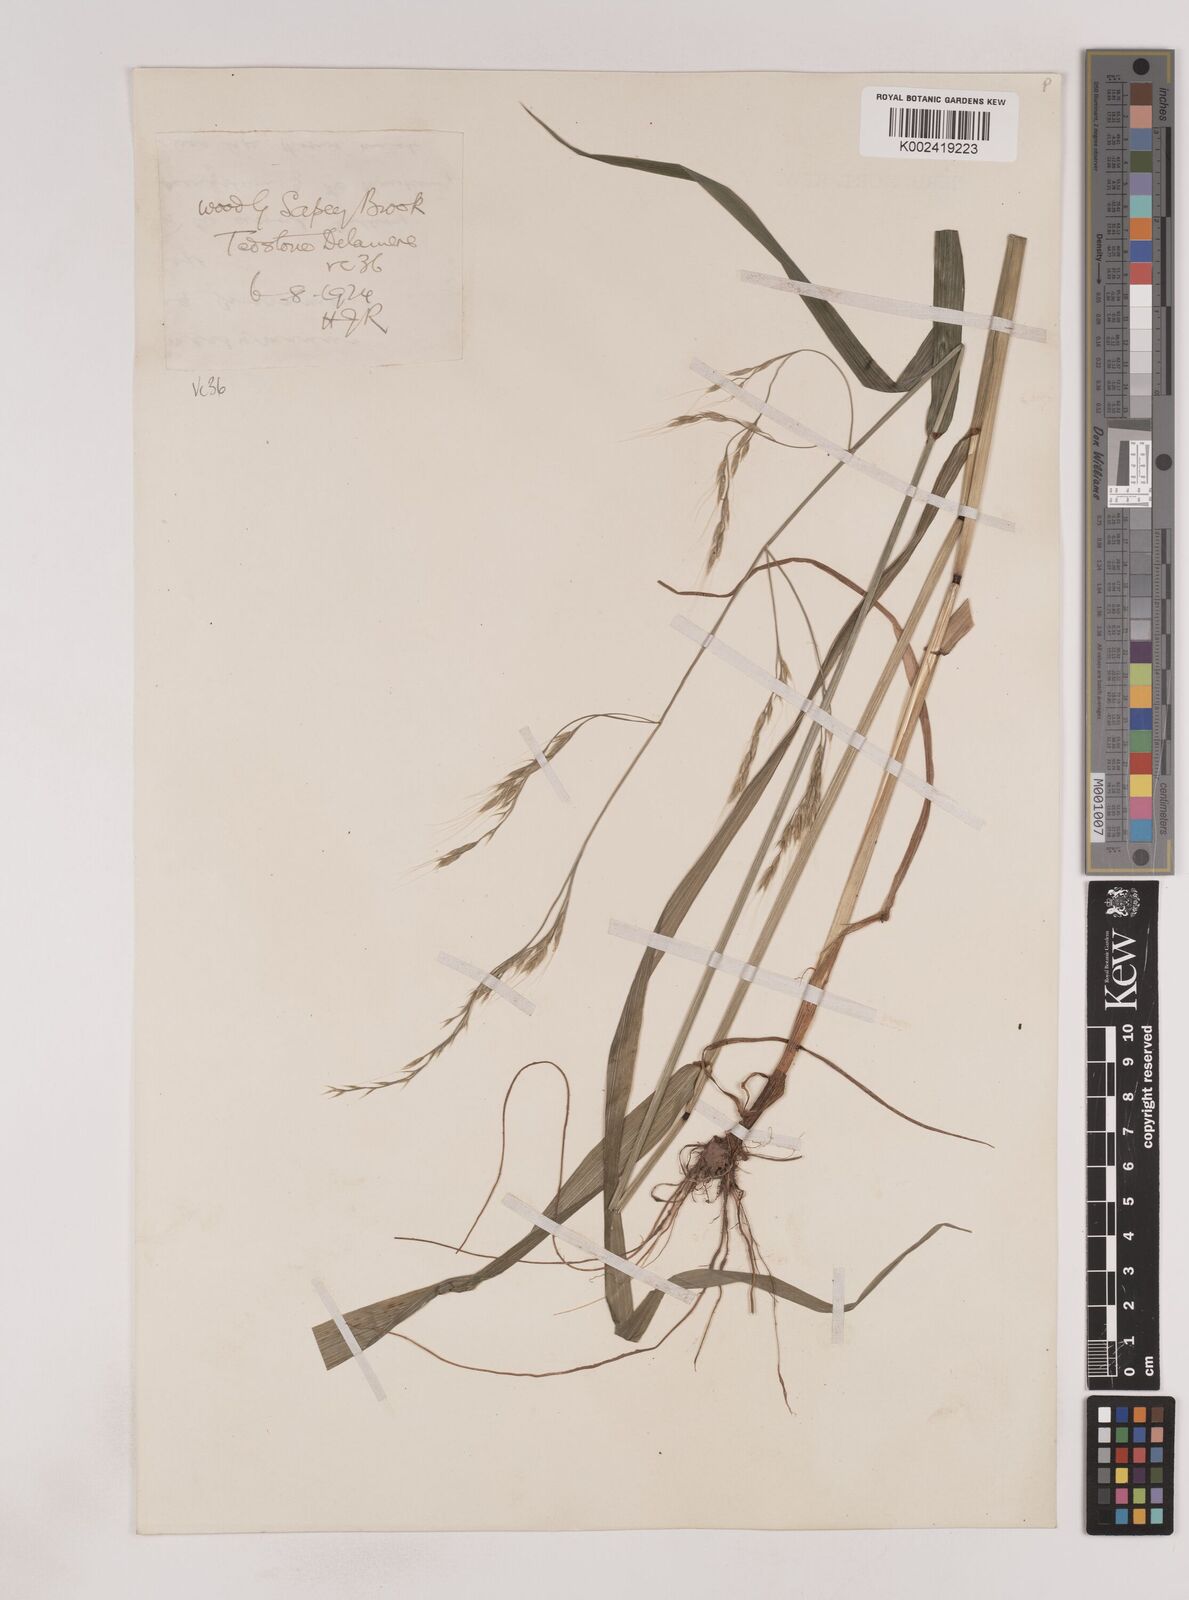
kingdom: Plantae
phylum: Tracheophyta
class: Liliopsida
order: Poales
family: Poaceae
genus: Lolium
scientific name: Lolium giganteum
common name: Giant fescue
